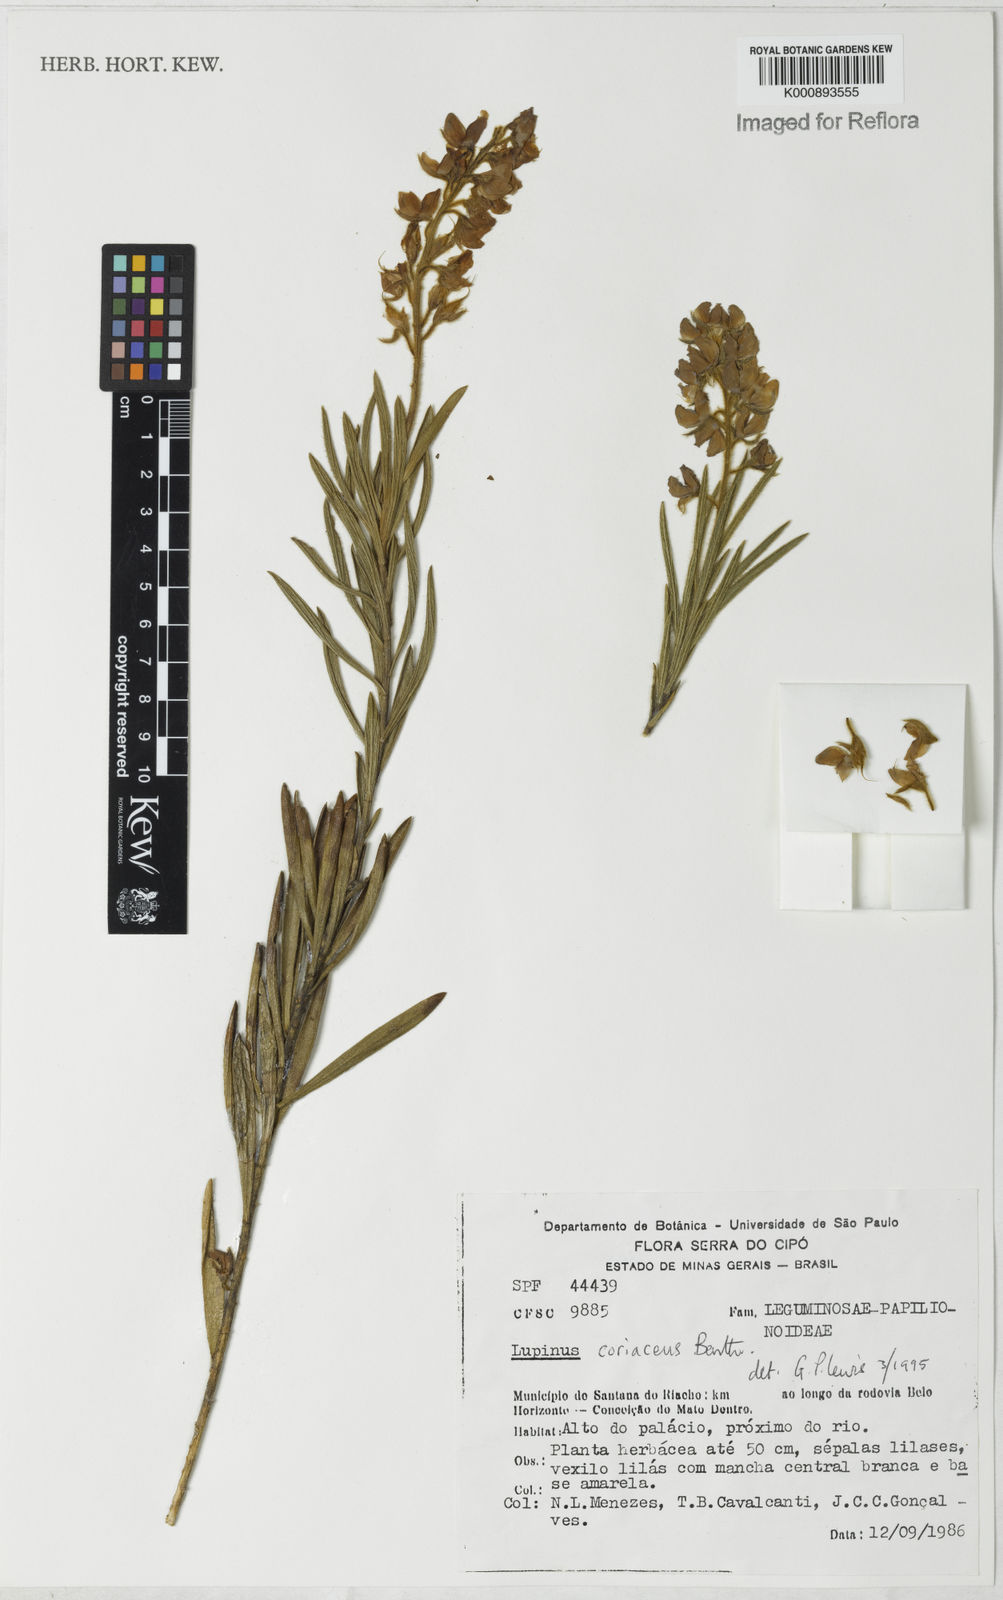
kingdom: Plantae
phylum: Tracheophyta
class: Magnoliopsida
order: Fabales
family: Fabaceae
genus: Lupinus
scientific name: Lupinus coriaceus
